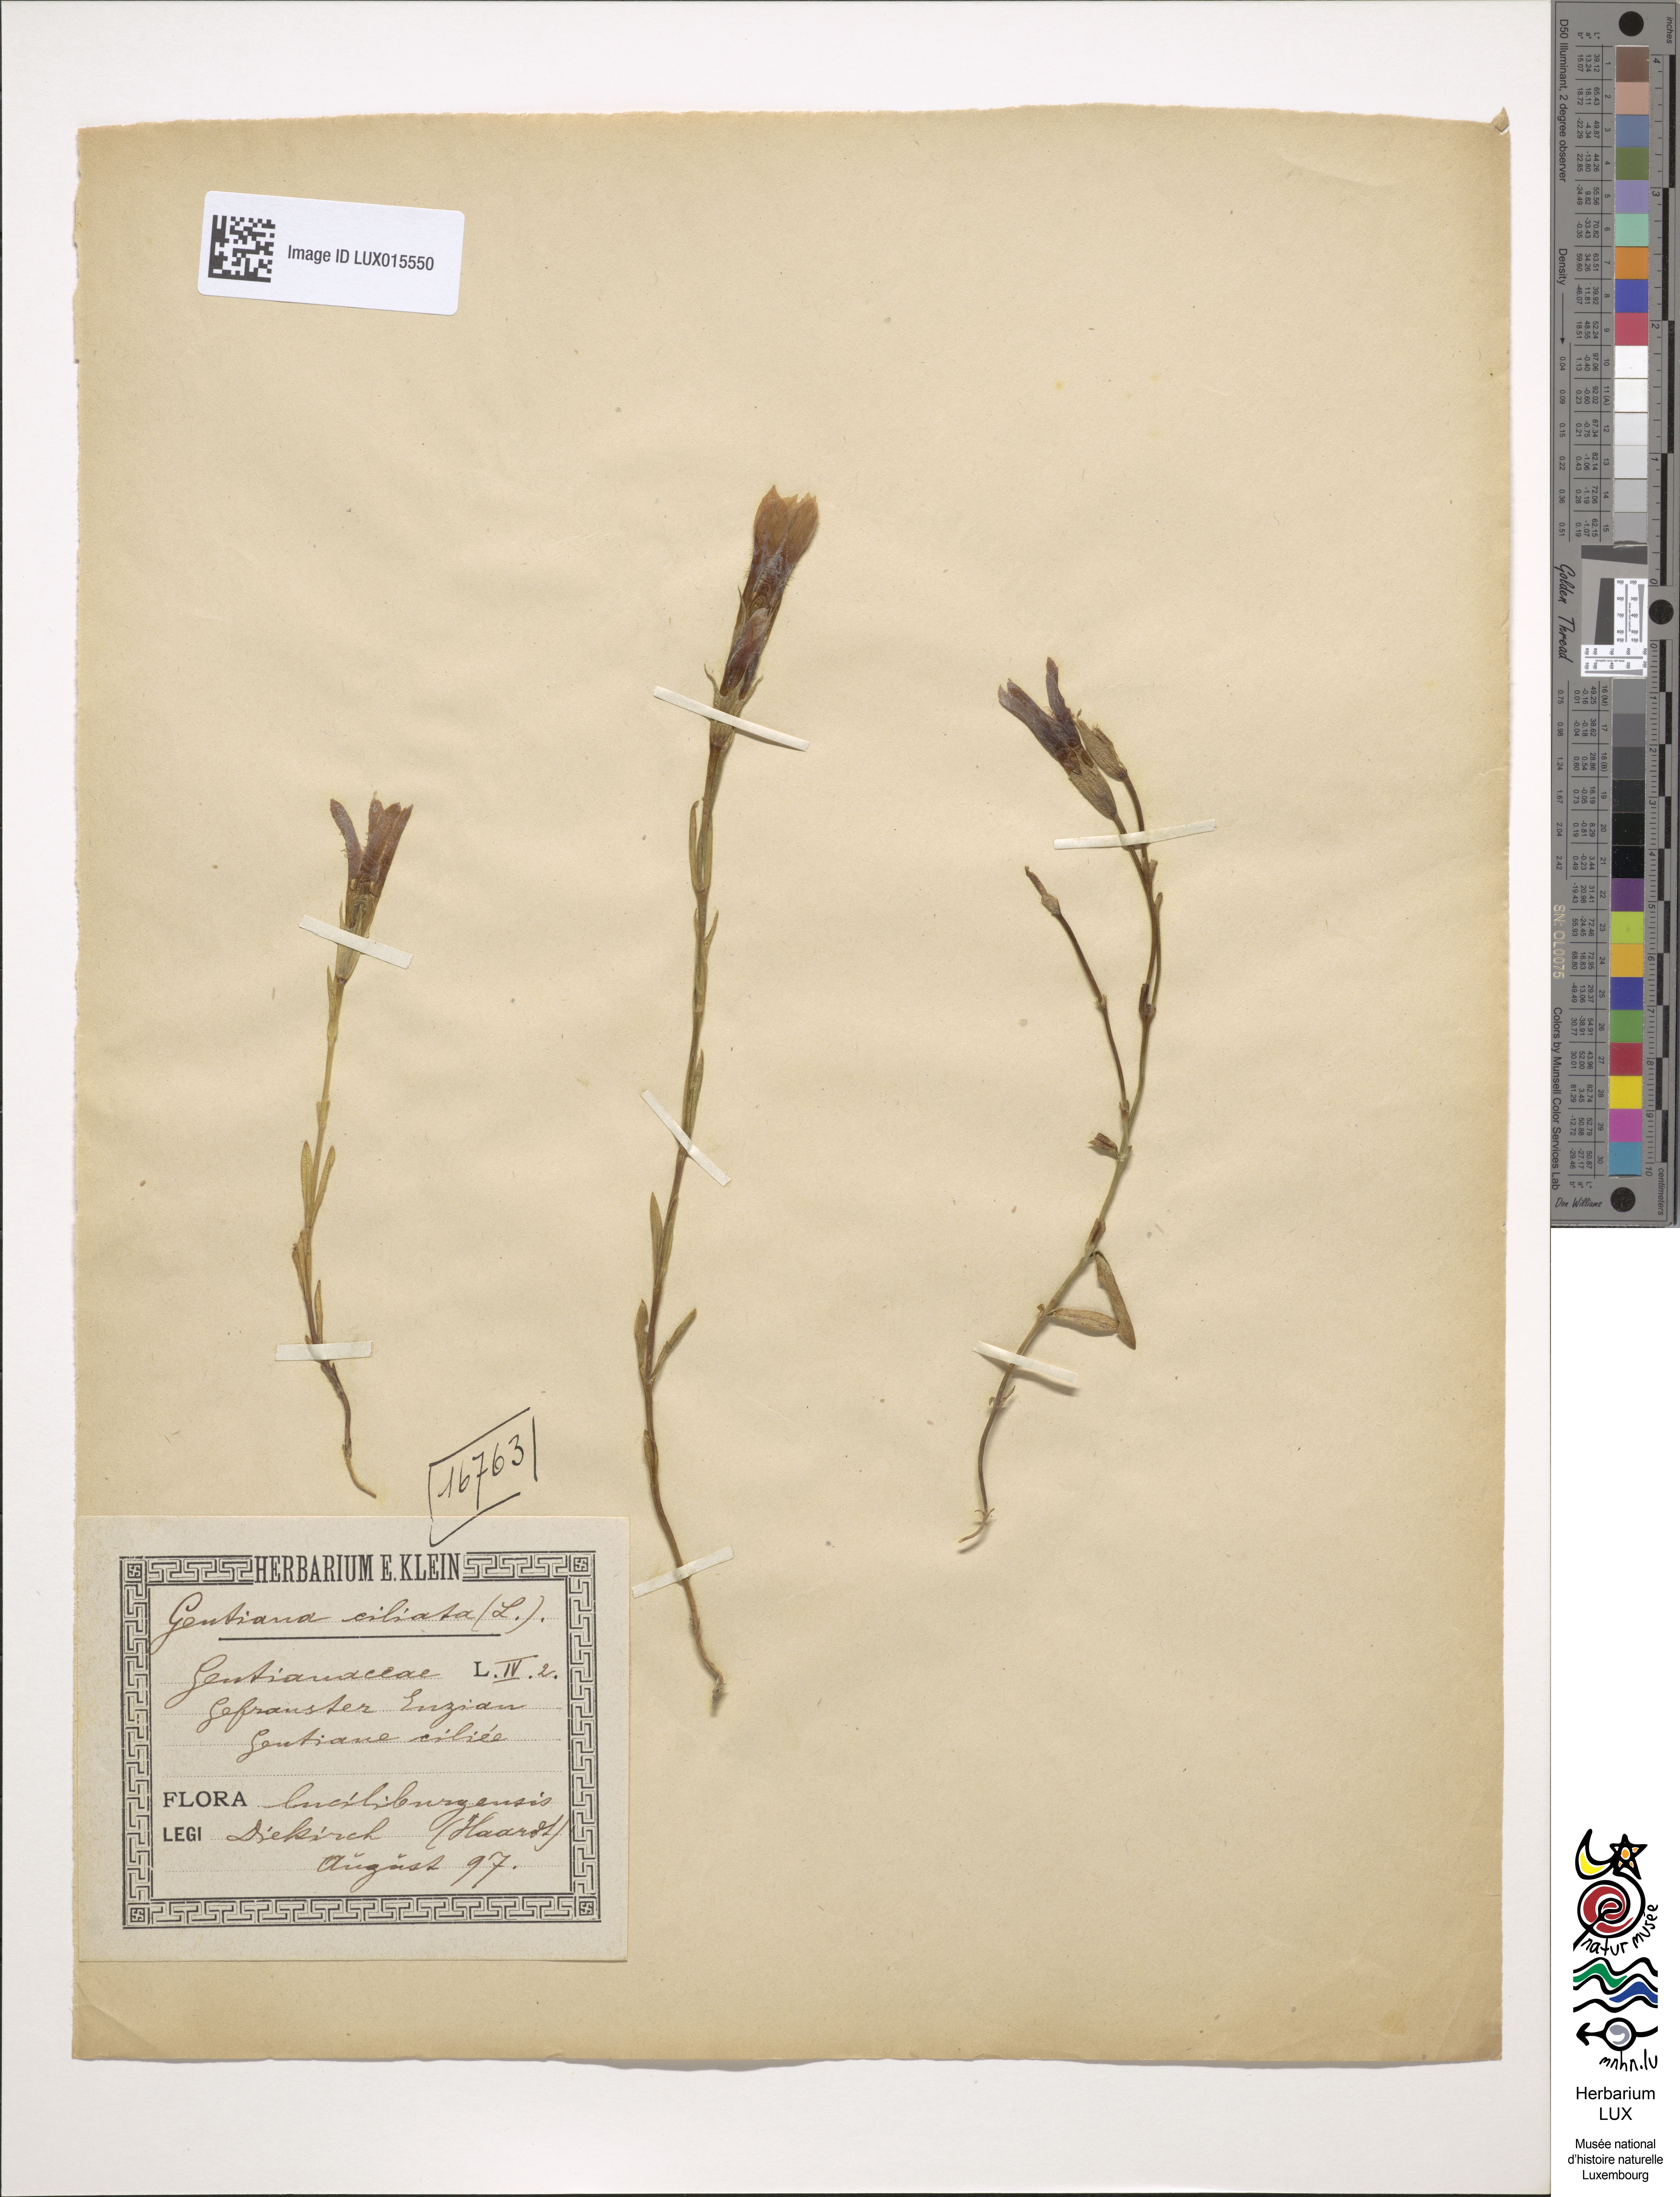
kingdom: Plantae
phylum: Tracheophyta
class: Magnoliopsida
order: Gentianales
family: Gentianaceae
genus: Gentianopsis
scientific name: Gentianopsis ciliata
